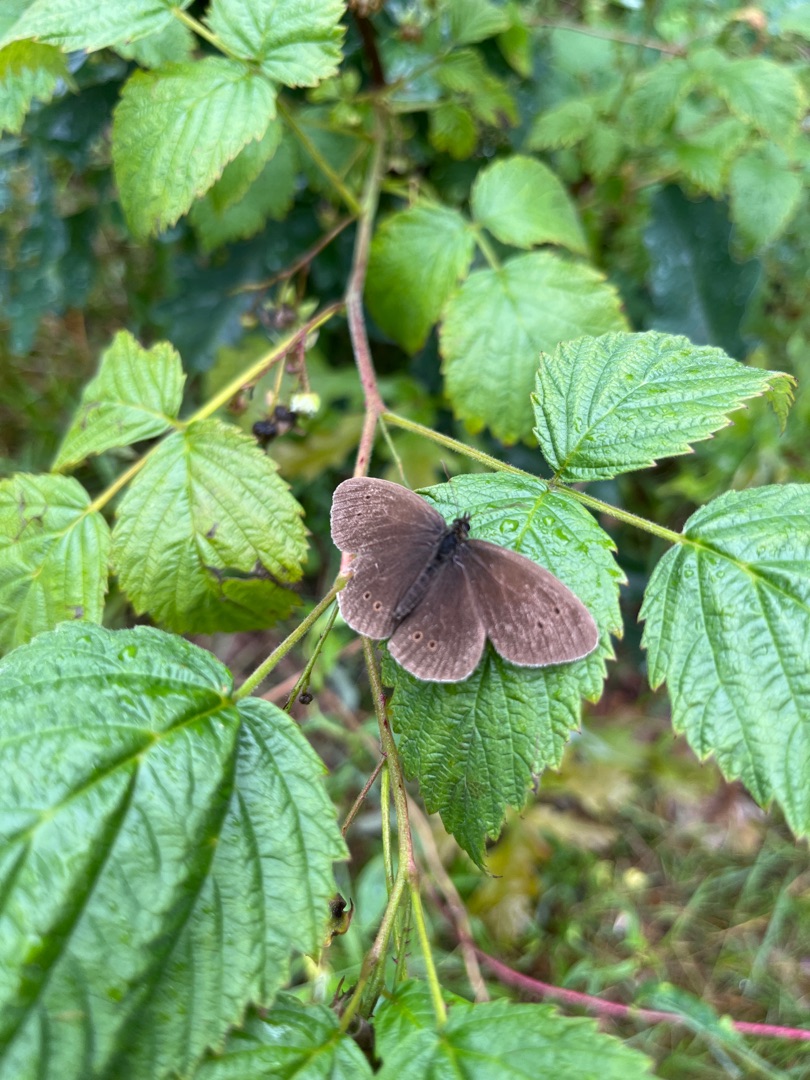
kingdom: Animalia
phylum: Arthropoda
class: Insecta
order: Lepidoptera
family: Nymphalidae
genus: Aphantopus
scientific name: Aphantopus hyperantus
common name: Engrandøje
